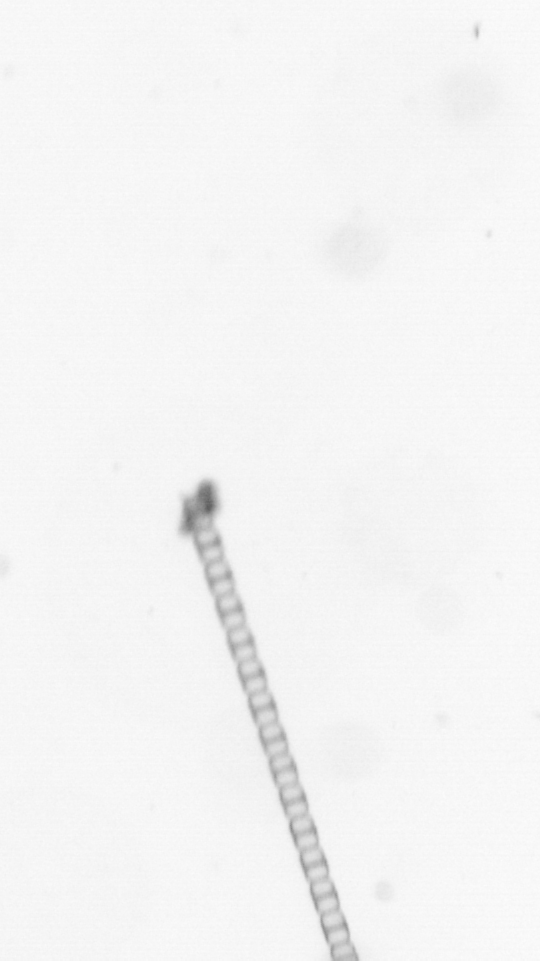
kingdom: Chromista
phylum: Ochrophyta
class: Bacillariophyceae
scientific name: Bacillariophyceae
